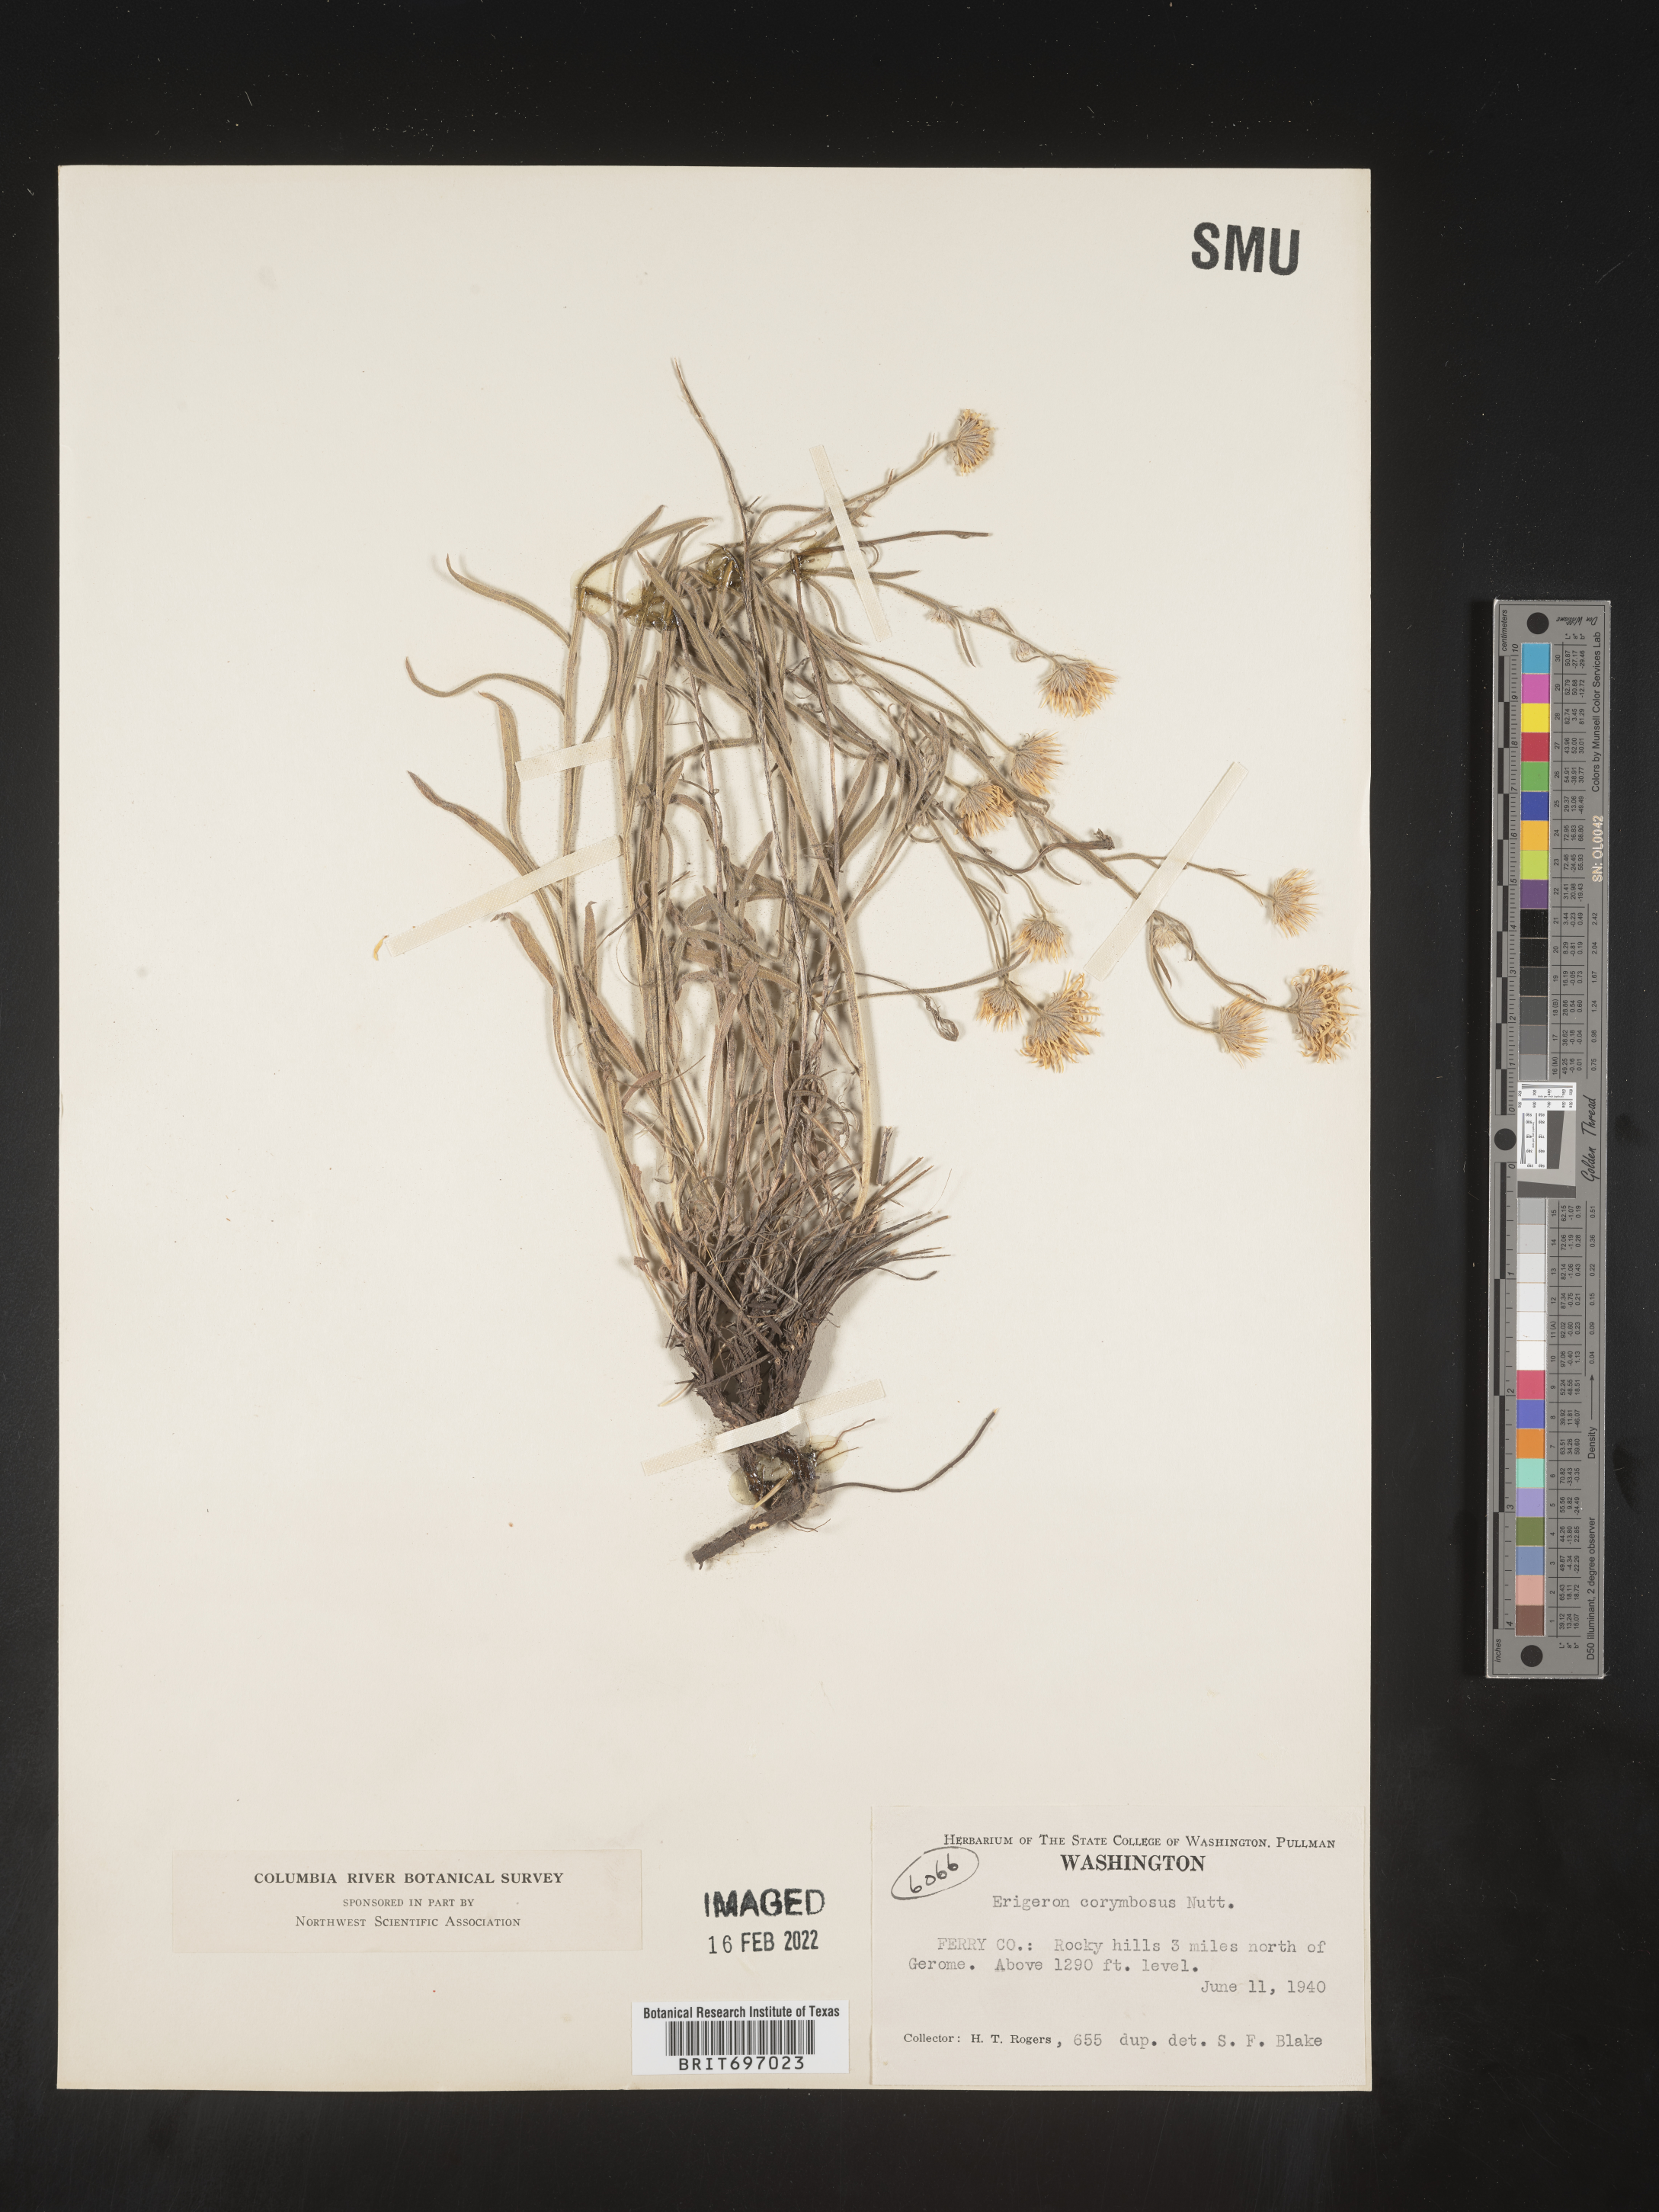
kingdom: Plantae
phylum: Tracheophyta
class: Magnoliopsida
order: Asterales
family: Asteraceae
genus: Erigeron
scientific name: Erigeron corymbosus
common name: Longleaf fleabane
